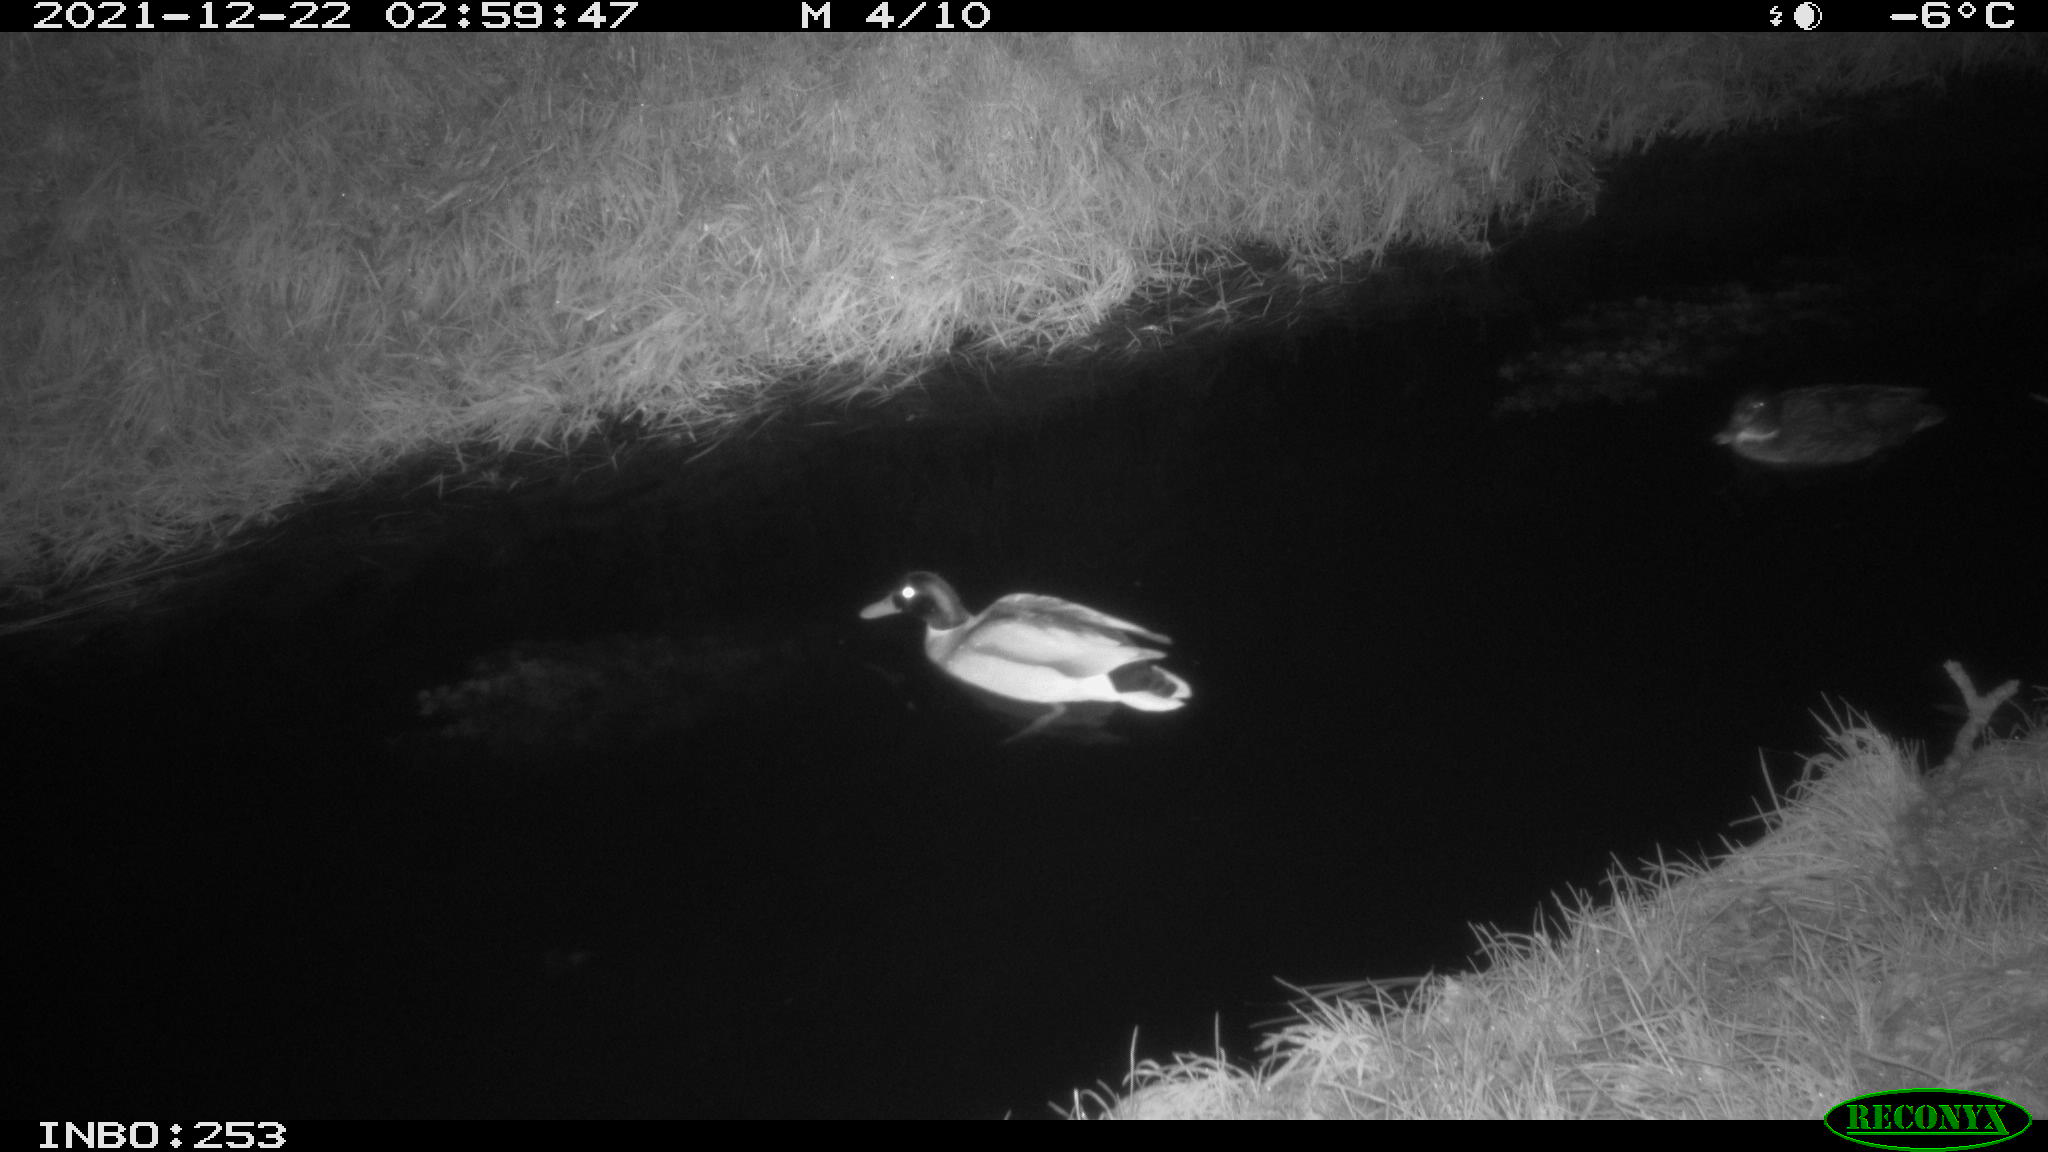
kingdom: Animalia
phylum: Chordata
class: Aves
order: Anseriformes
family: Anatidae
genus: Anas
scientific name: Anas
